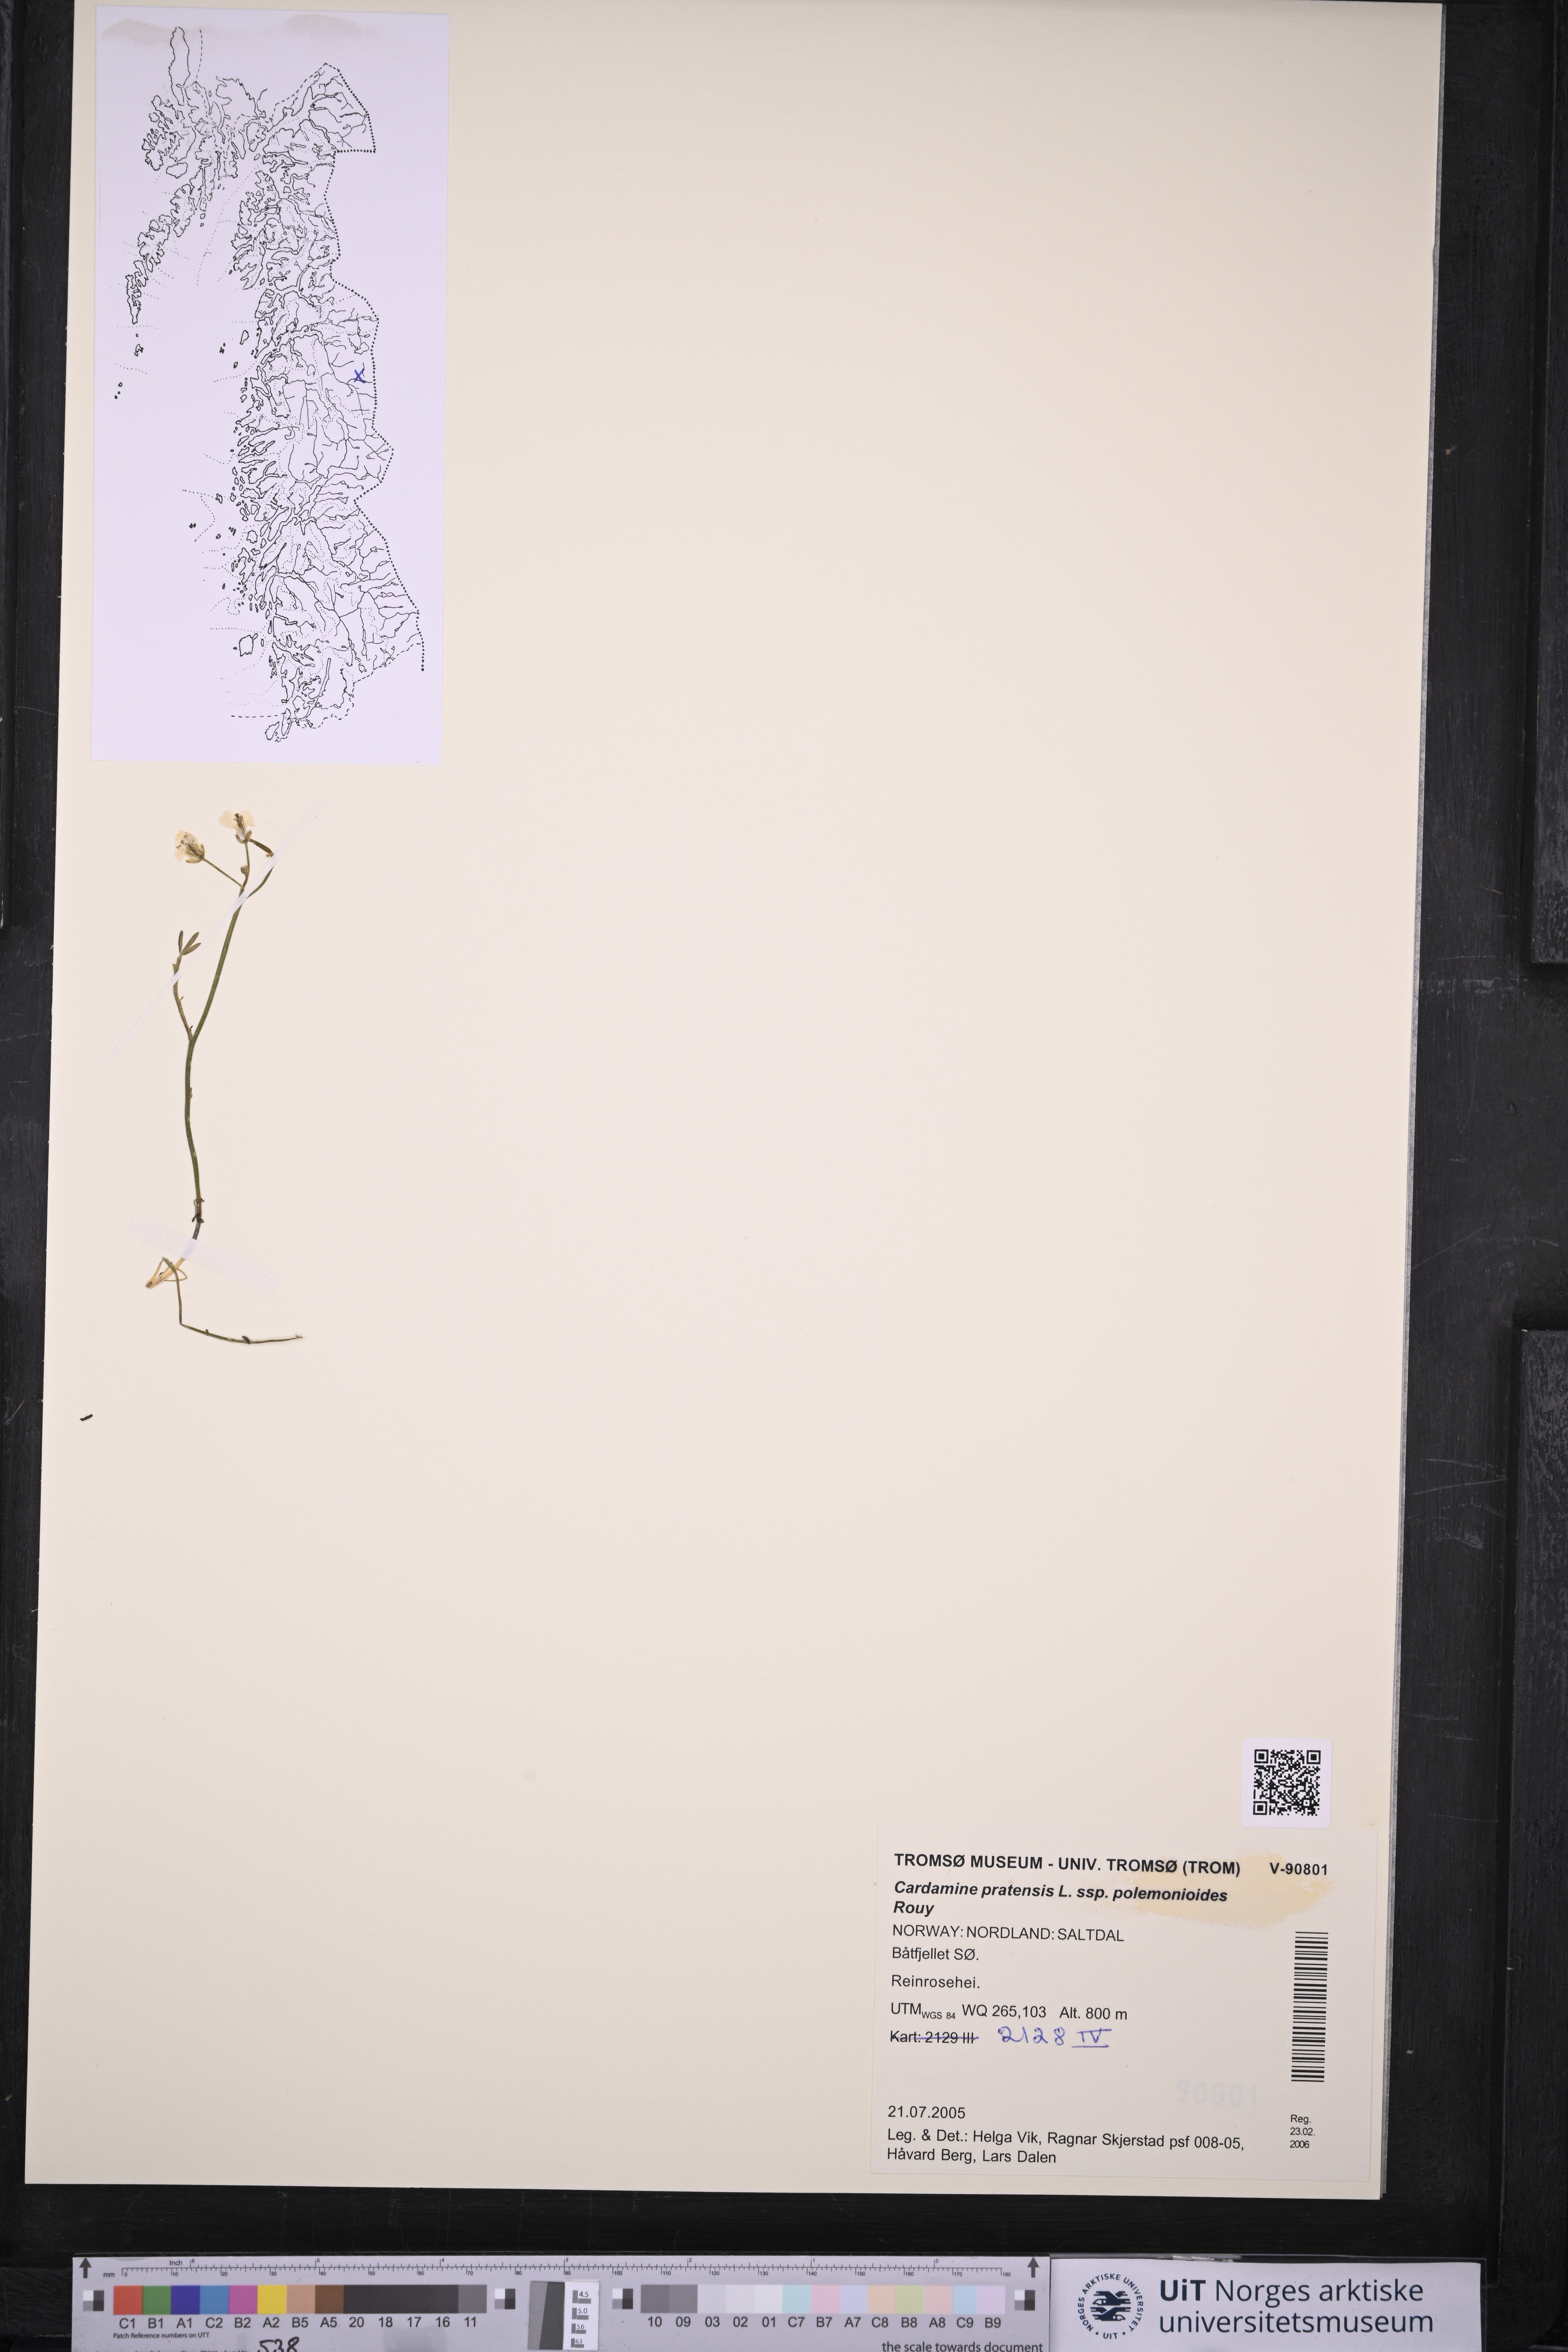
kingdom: Plantae
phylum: Tracheophyta
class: Magnoliopsida
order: Brassicales
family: Brassicaceae
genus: Cardamine
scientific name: Cardamine nymanii
